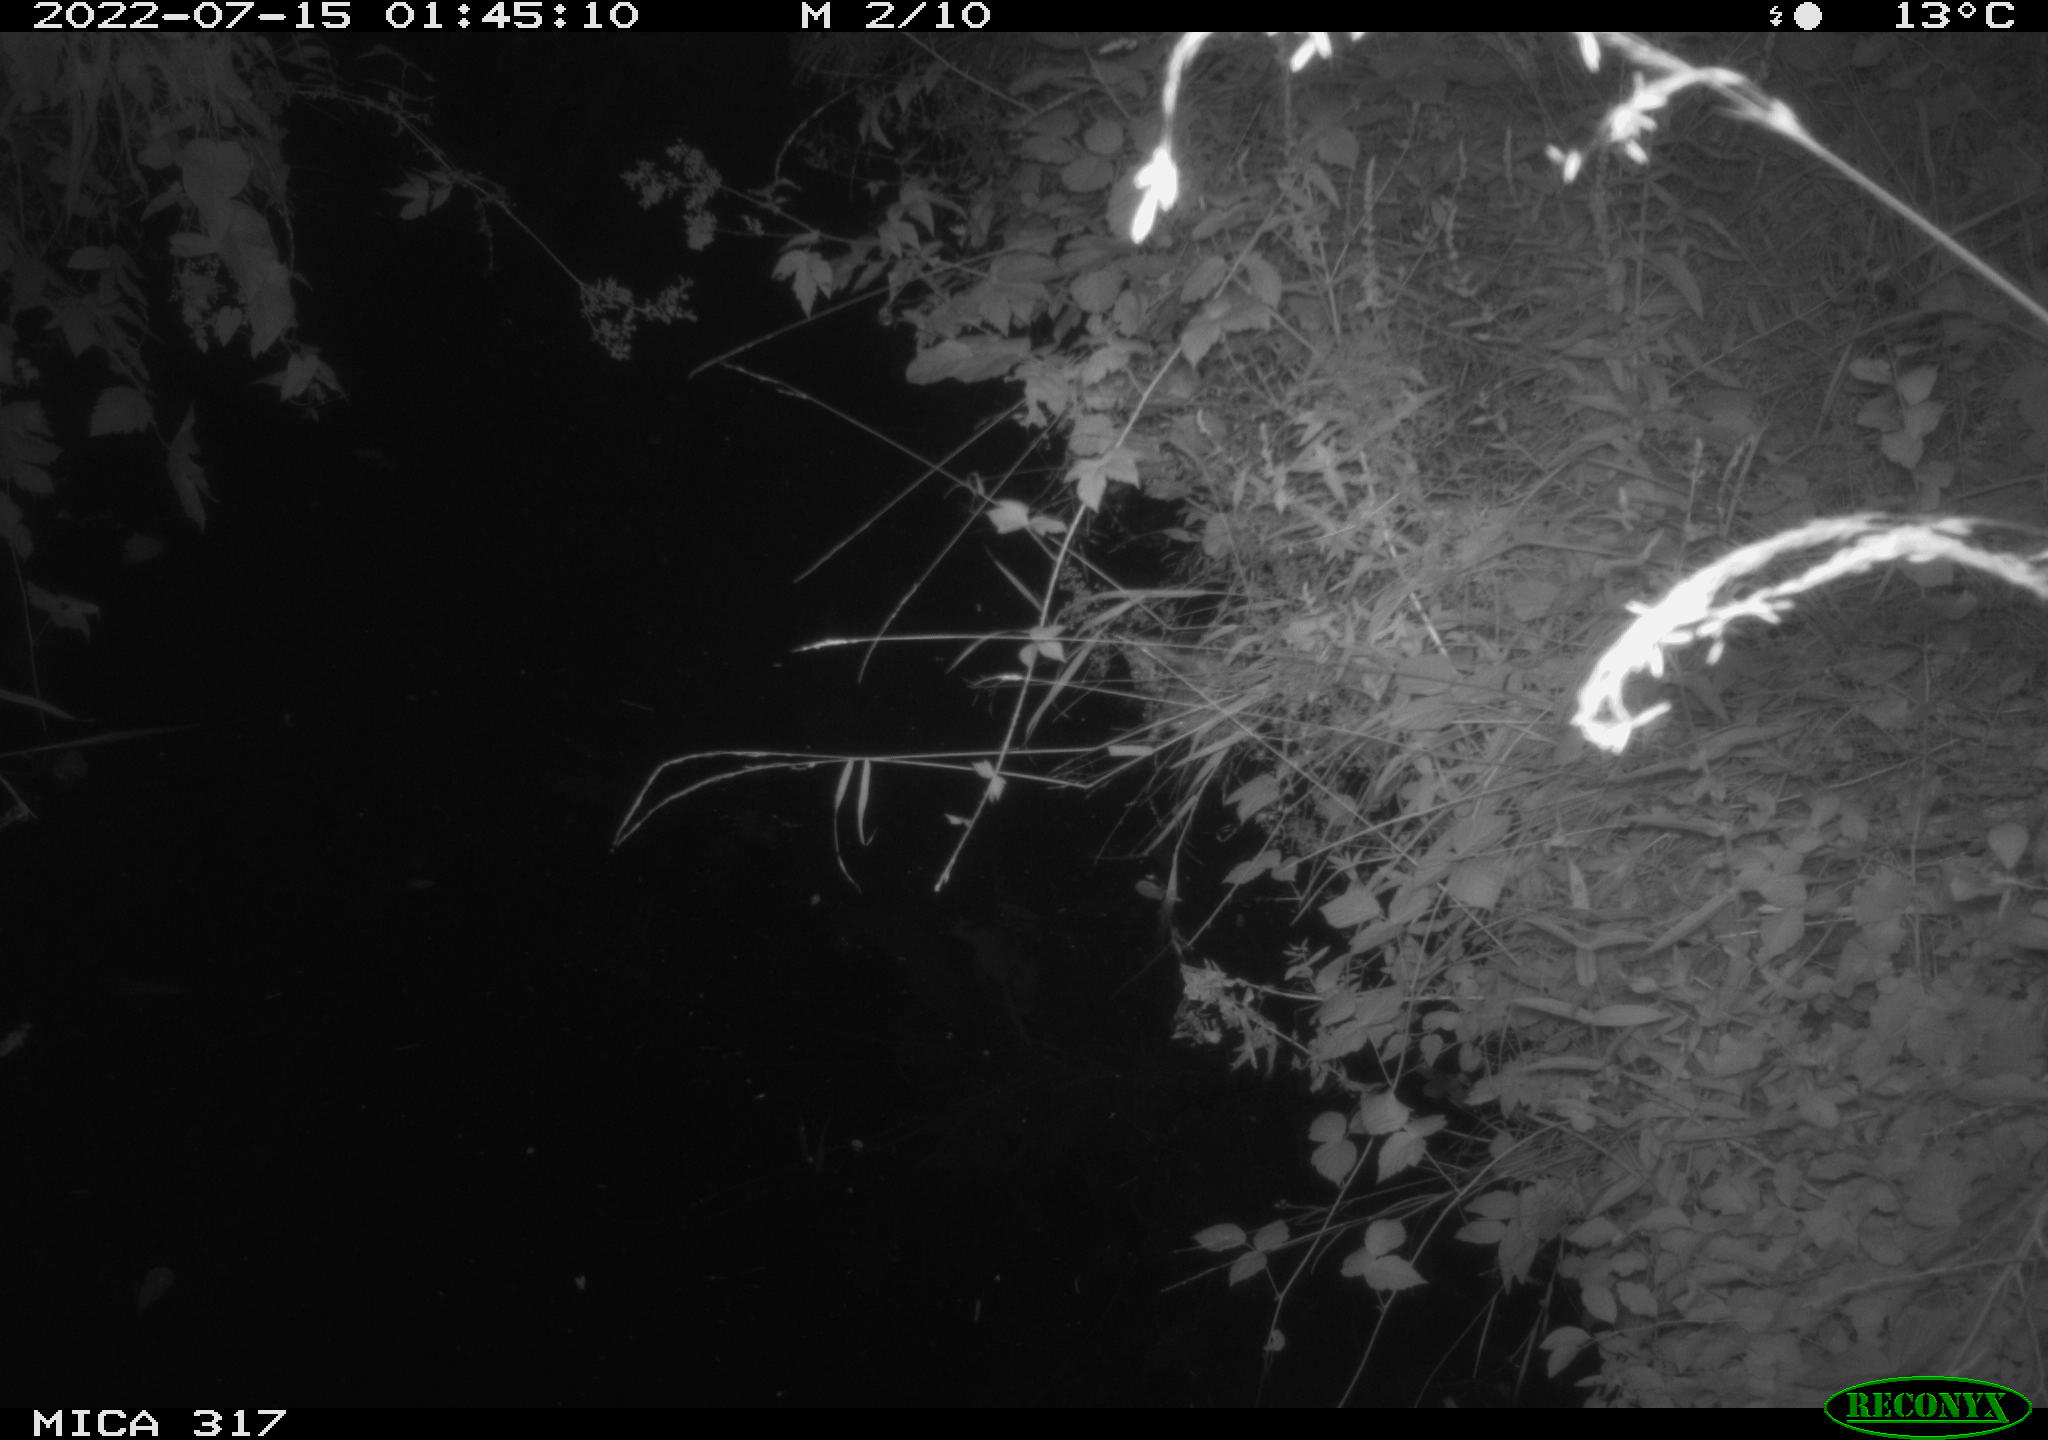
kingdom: Animalia
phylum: Chordata
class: Aves
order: Anseriformes
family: Anatidae
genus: Anas
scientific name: Anas platyrhynchos
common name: Mallard
